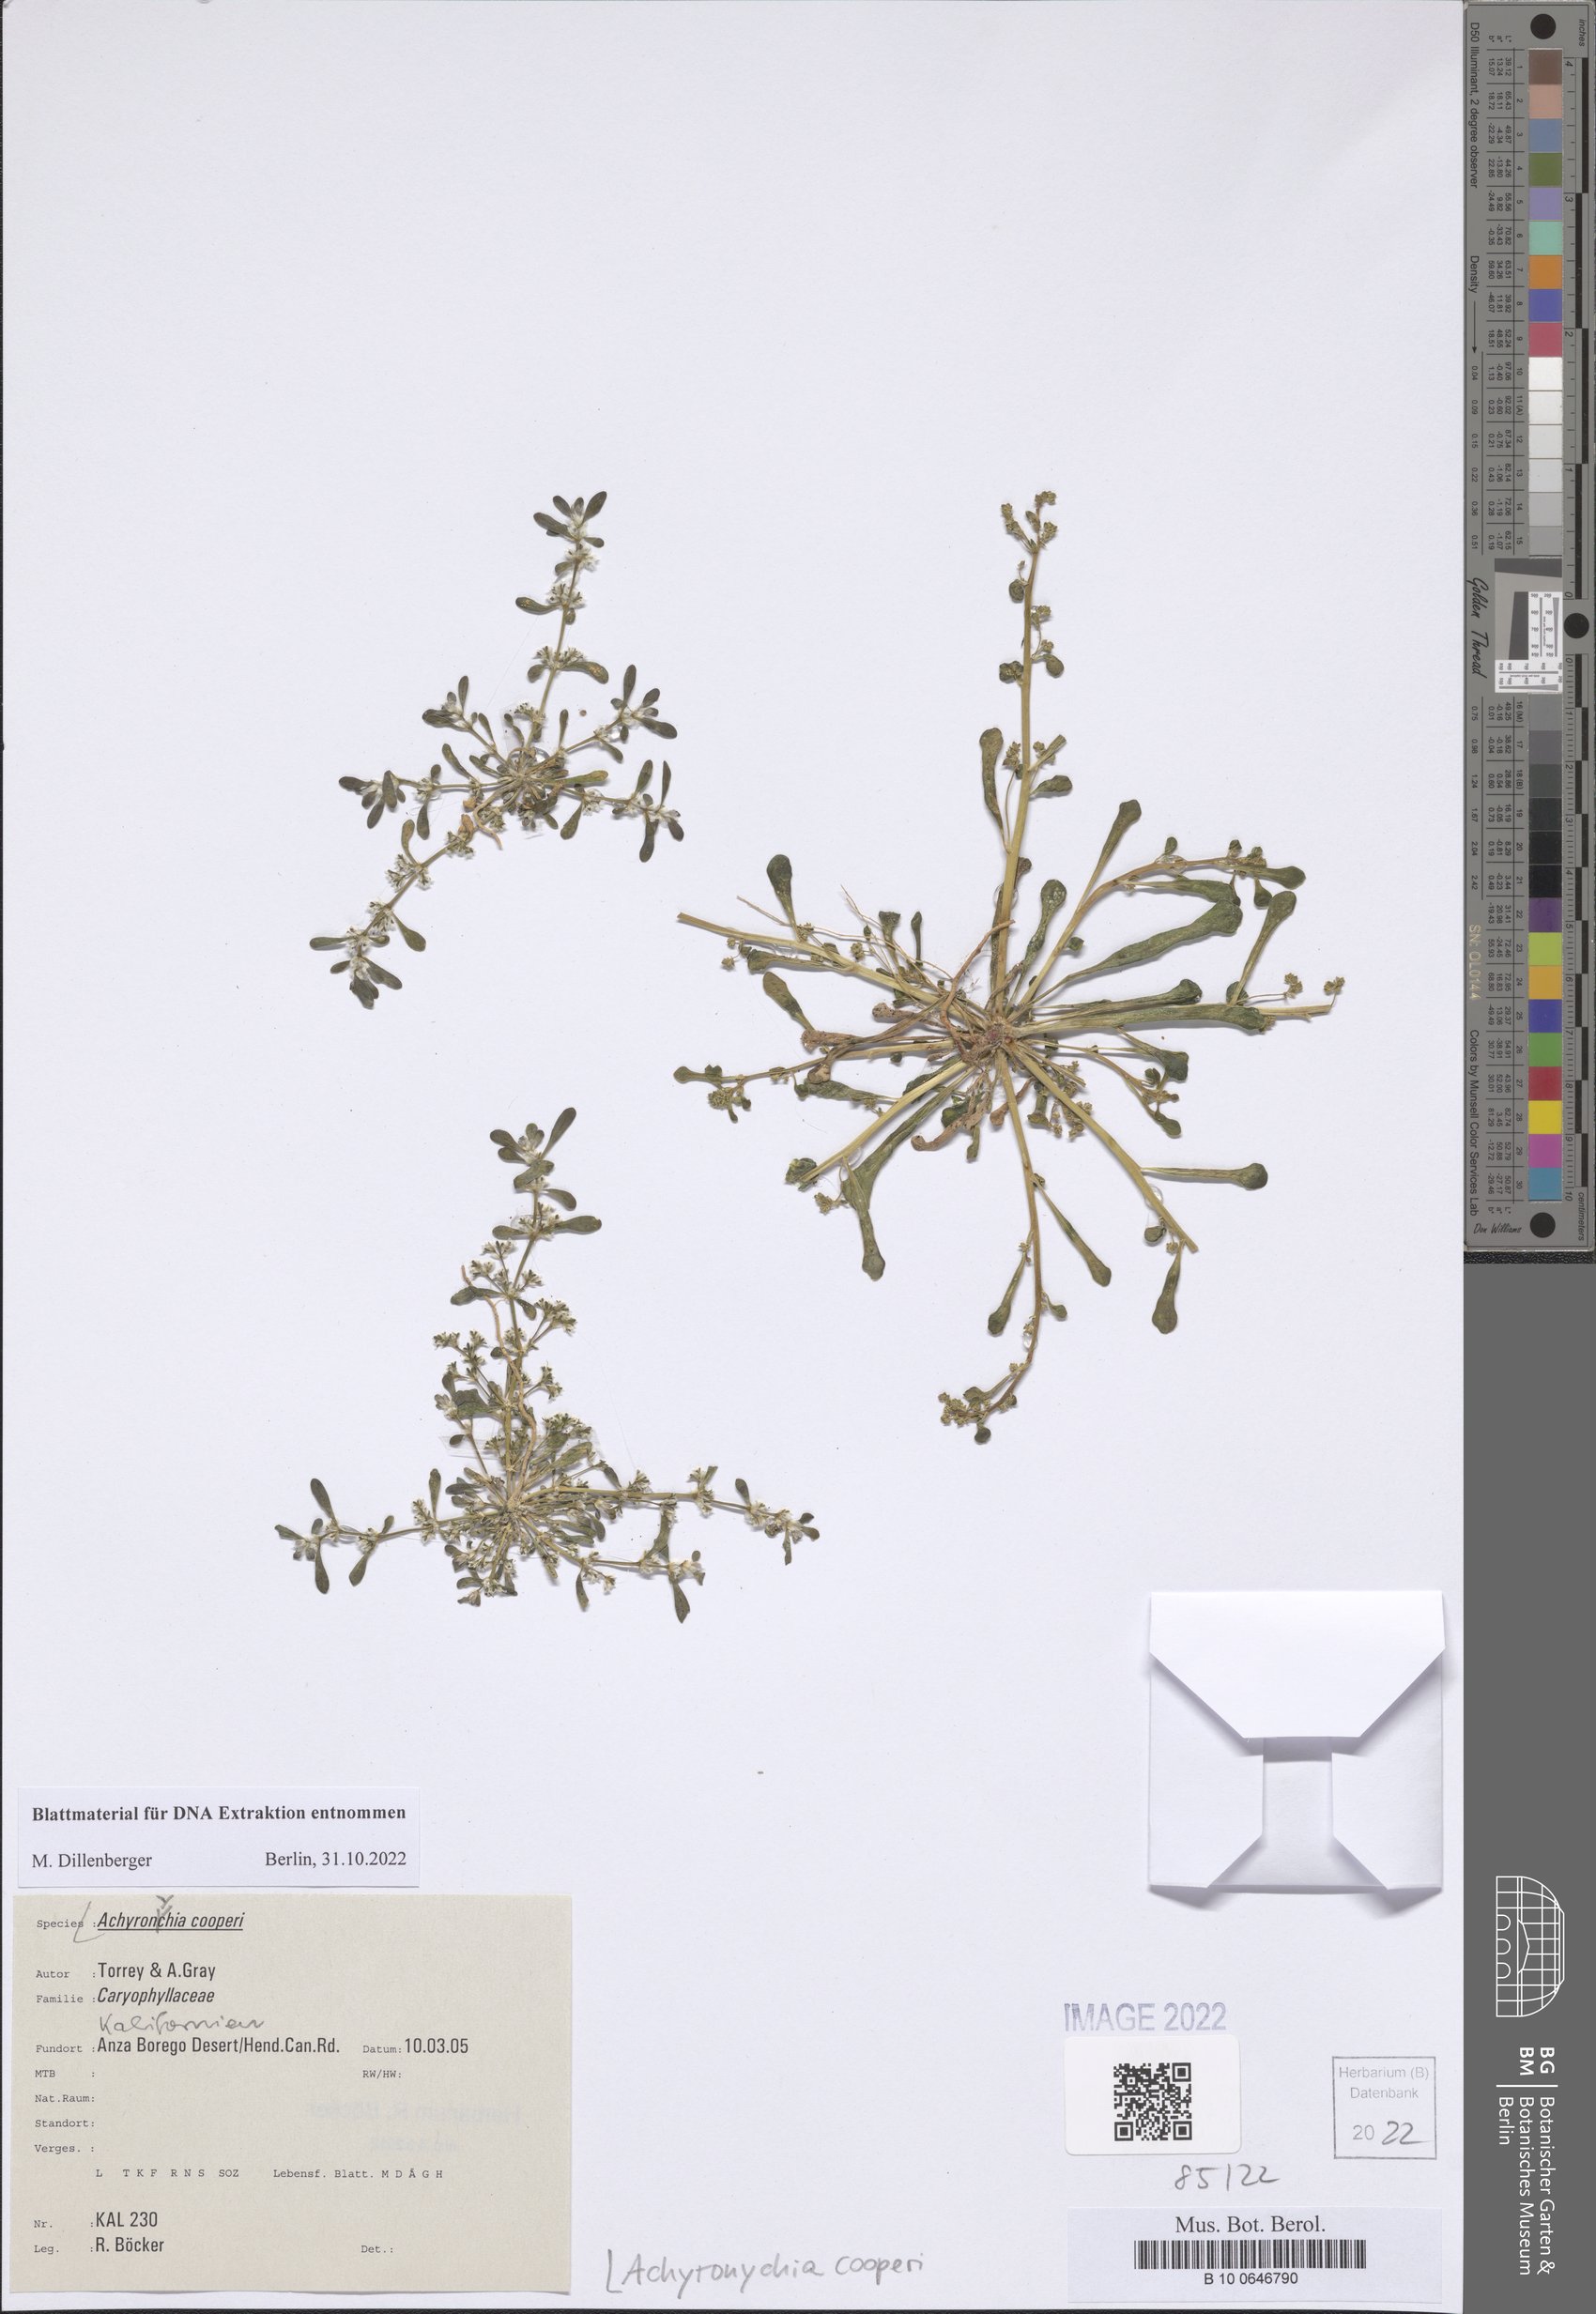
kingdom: Plantae
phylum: Tracheophyta
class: Magnoliopsida
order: Caryophyllales
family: Caryophyllaceae
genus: Achyronychia
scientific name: Achyronychia cooperi
